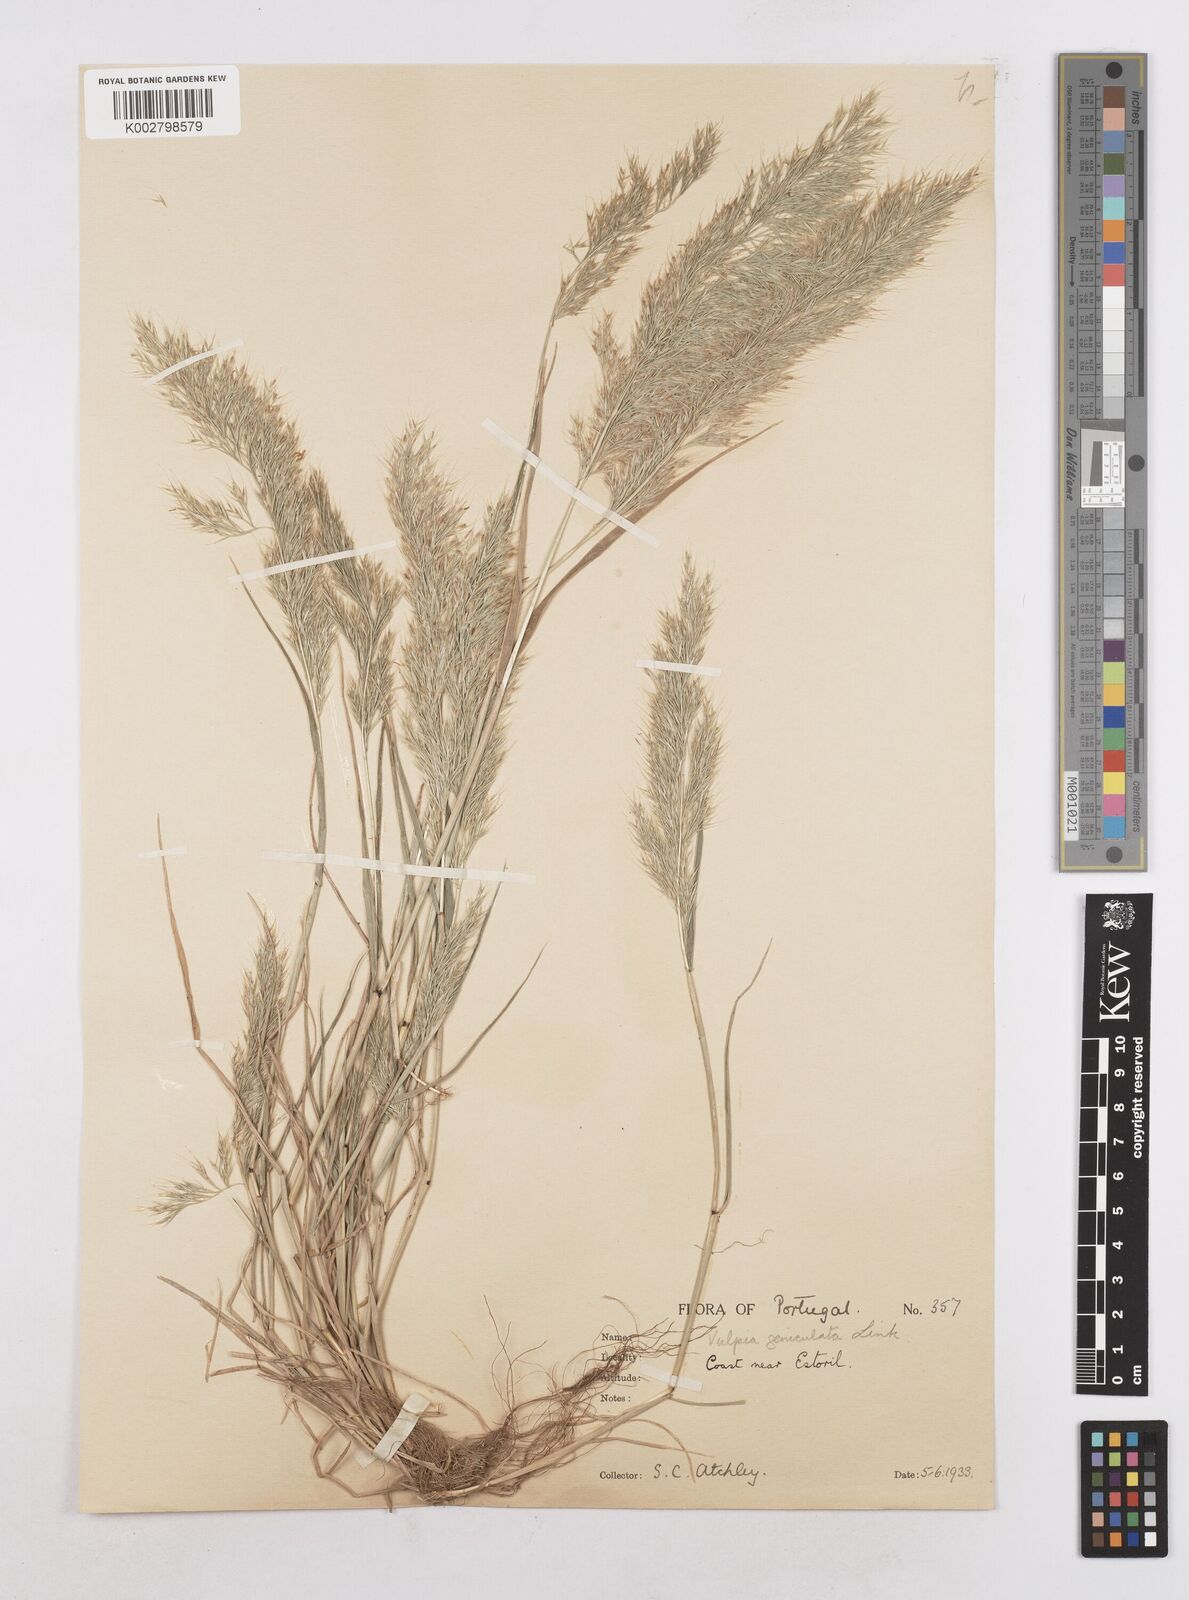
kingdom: Plantae
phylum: Tracheophyta
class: Liliopsida
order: Poales
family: Poaceae
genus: Festuca
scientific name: Festuca geniculata
